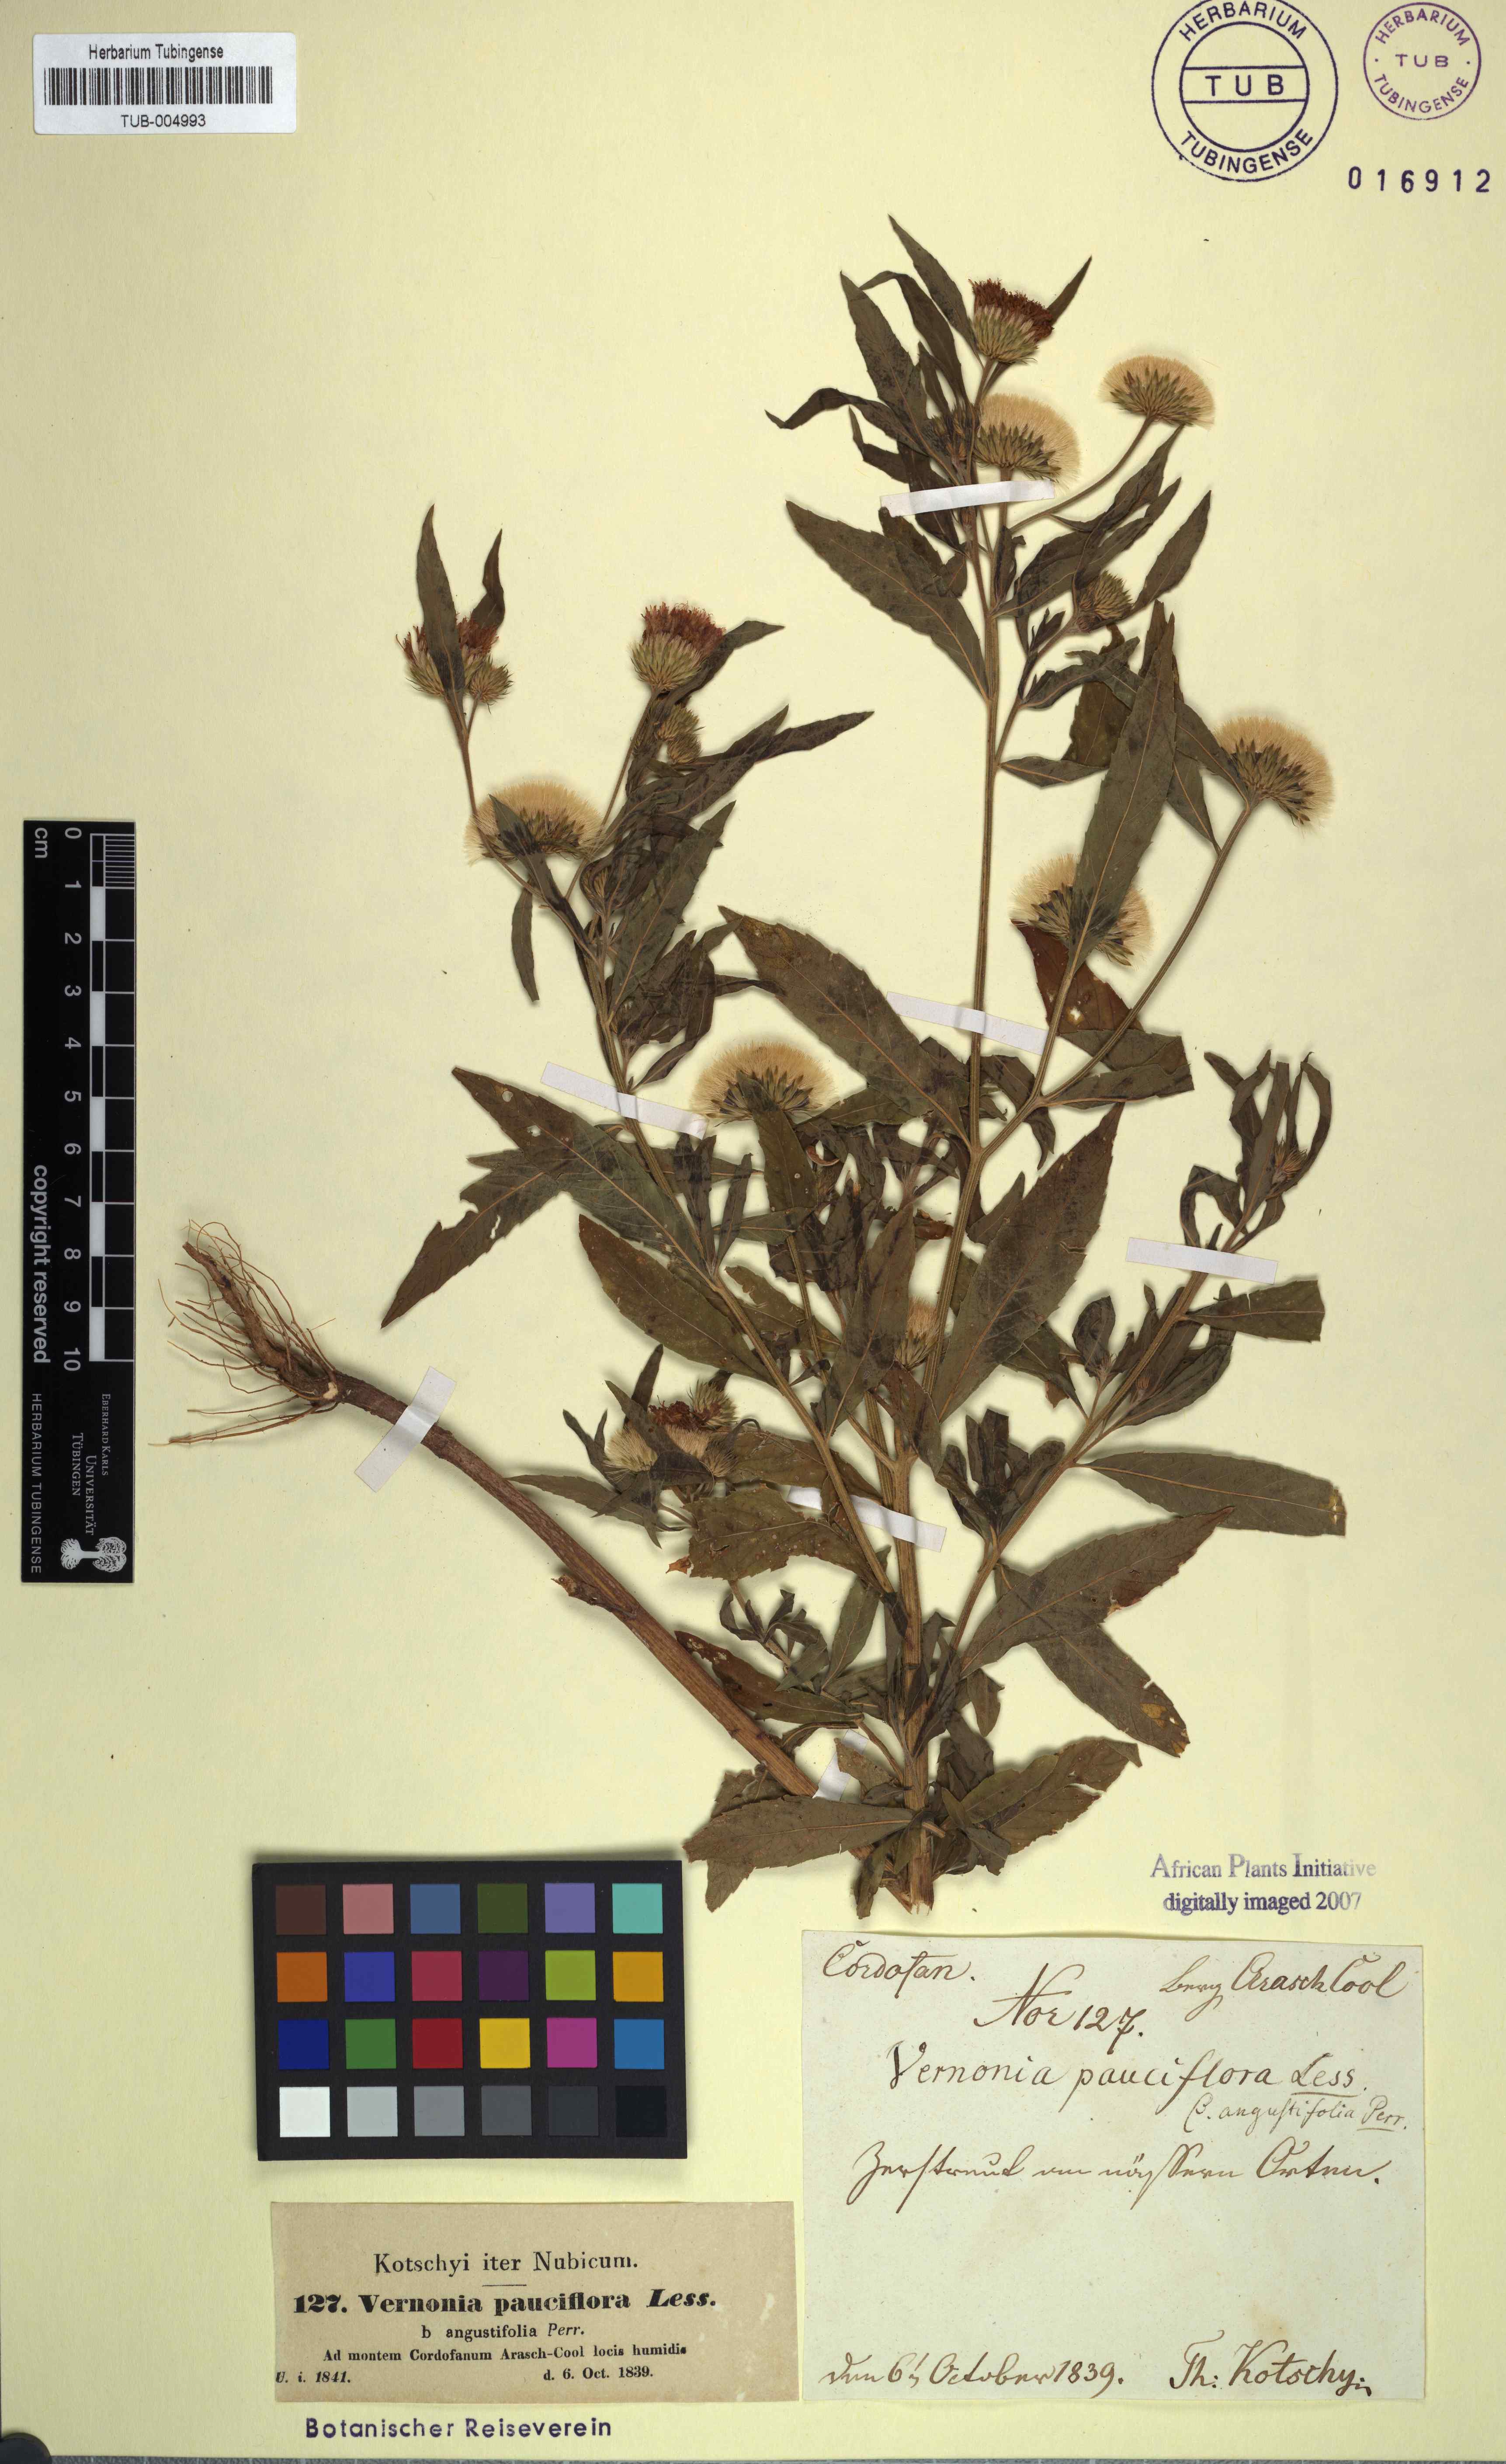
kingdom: Plantae
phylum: Tracheophyta
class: Magnoliopsida
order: Asterales
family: Asteraceae
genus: Vernonia
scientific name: Vernonia galamensis
